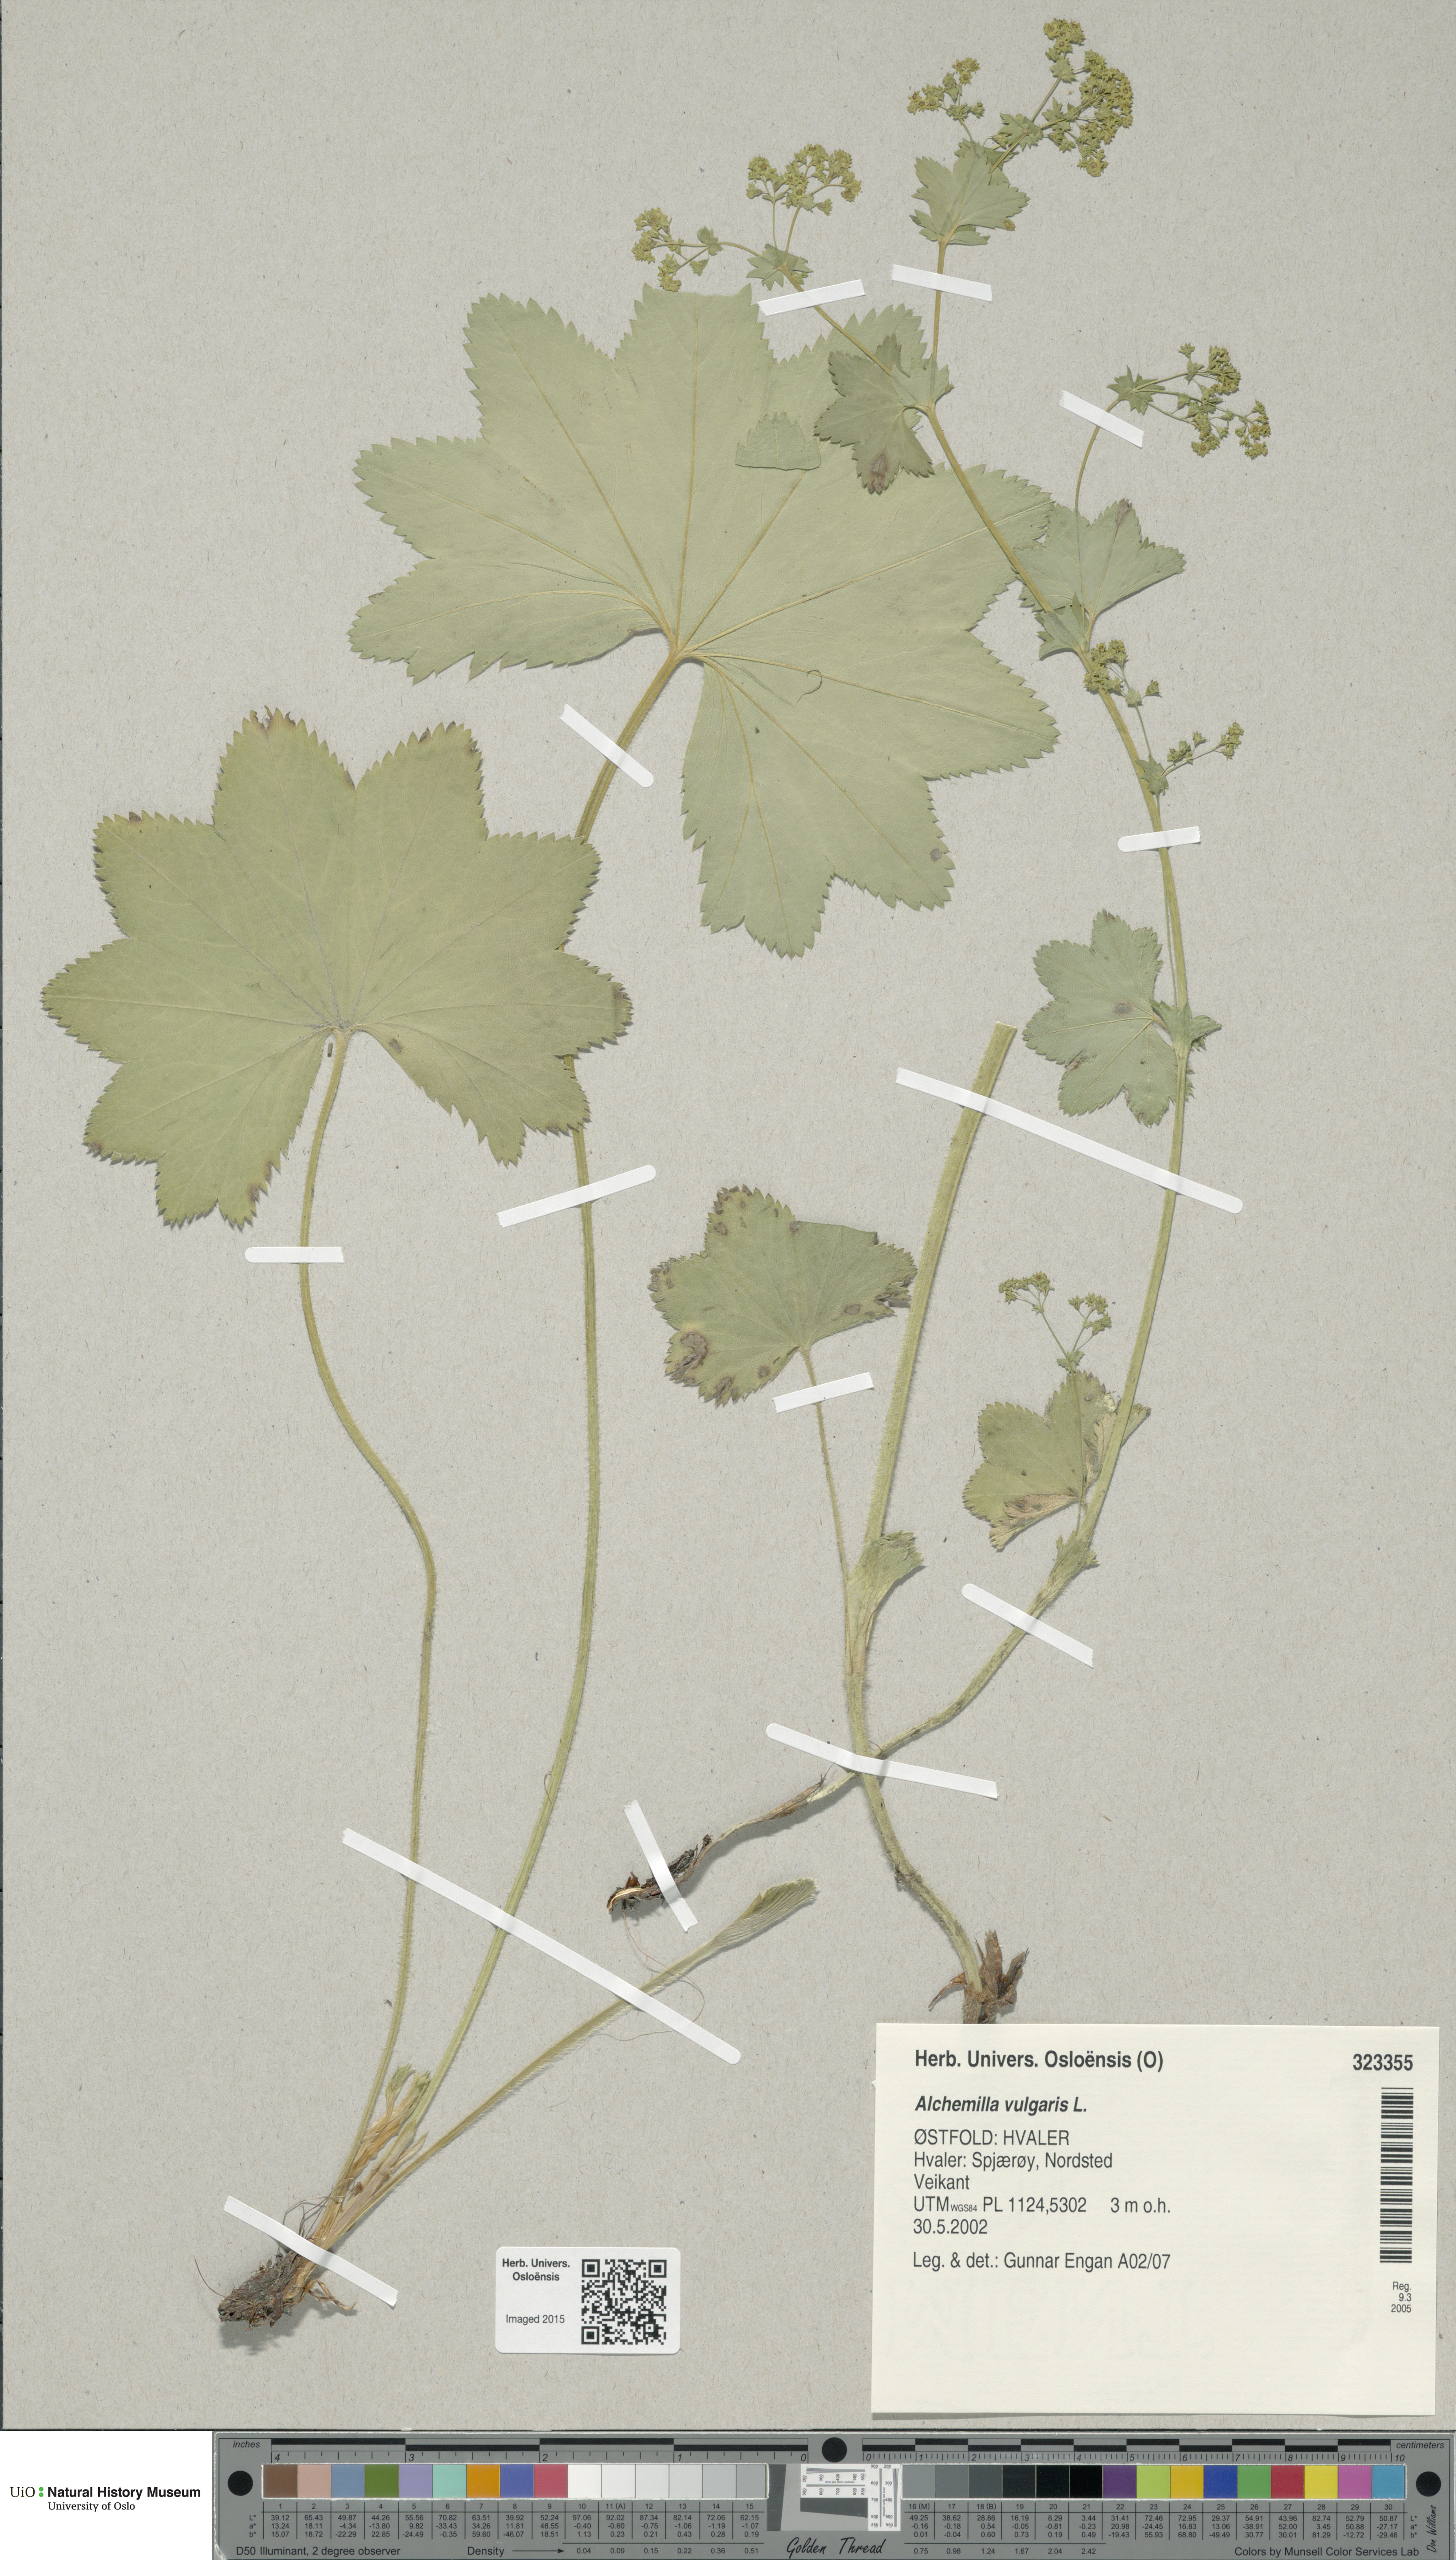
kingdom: Plantae
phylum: Tracheophyta
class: Magnoliopsida
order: Rosales
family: Rosaceae
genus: Alchemilla
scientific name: Alchemilla vulgaris
